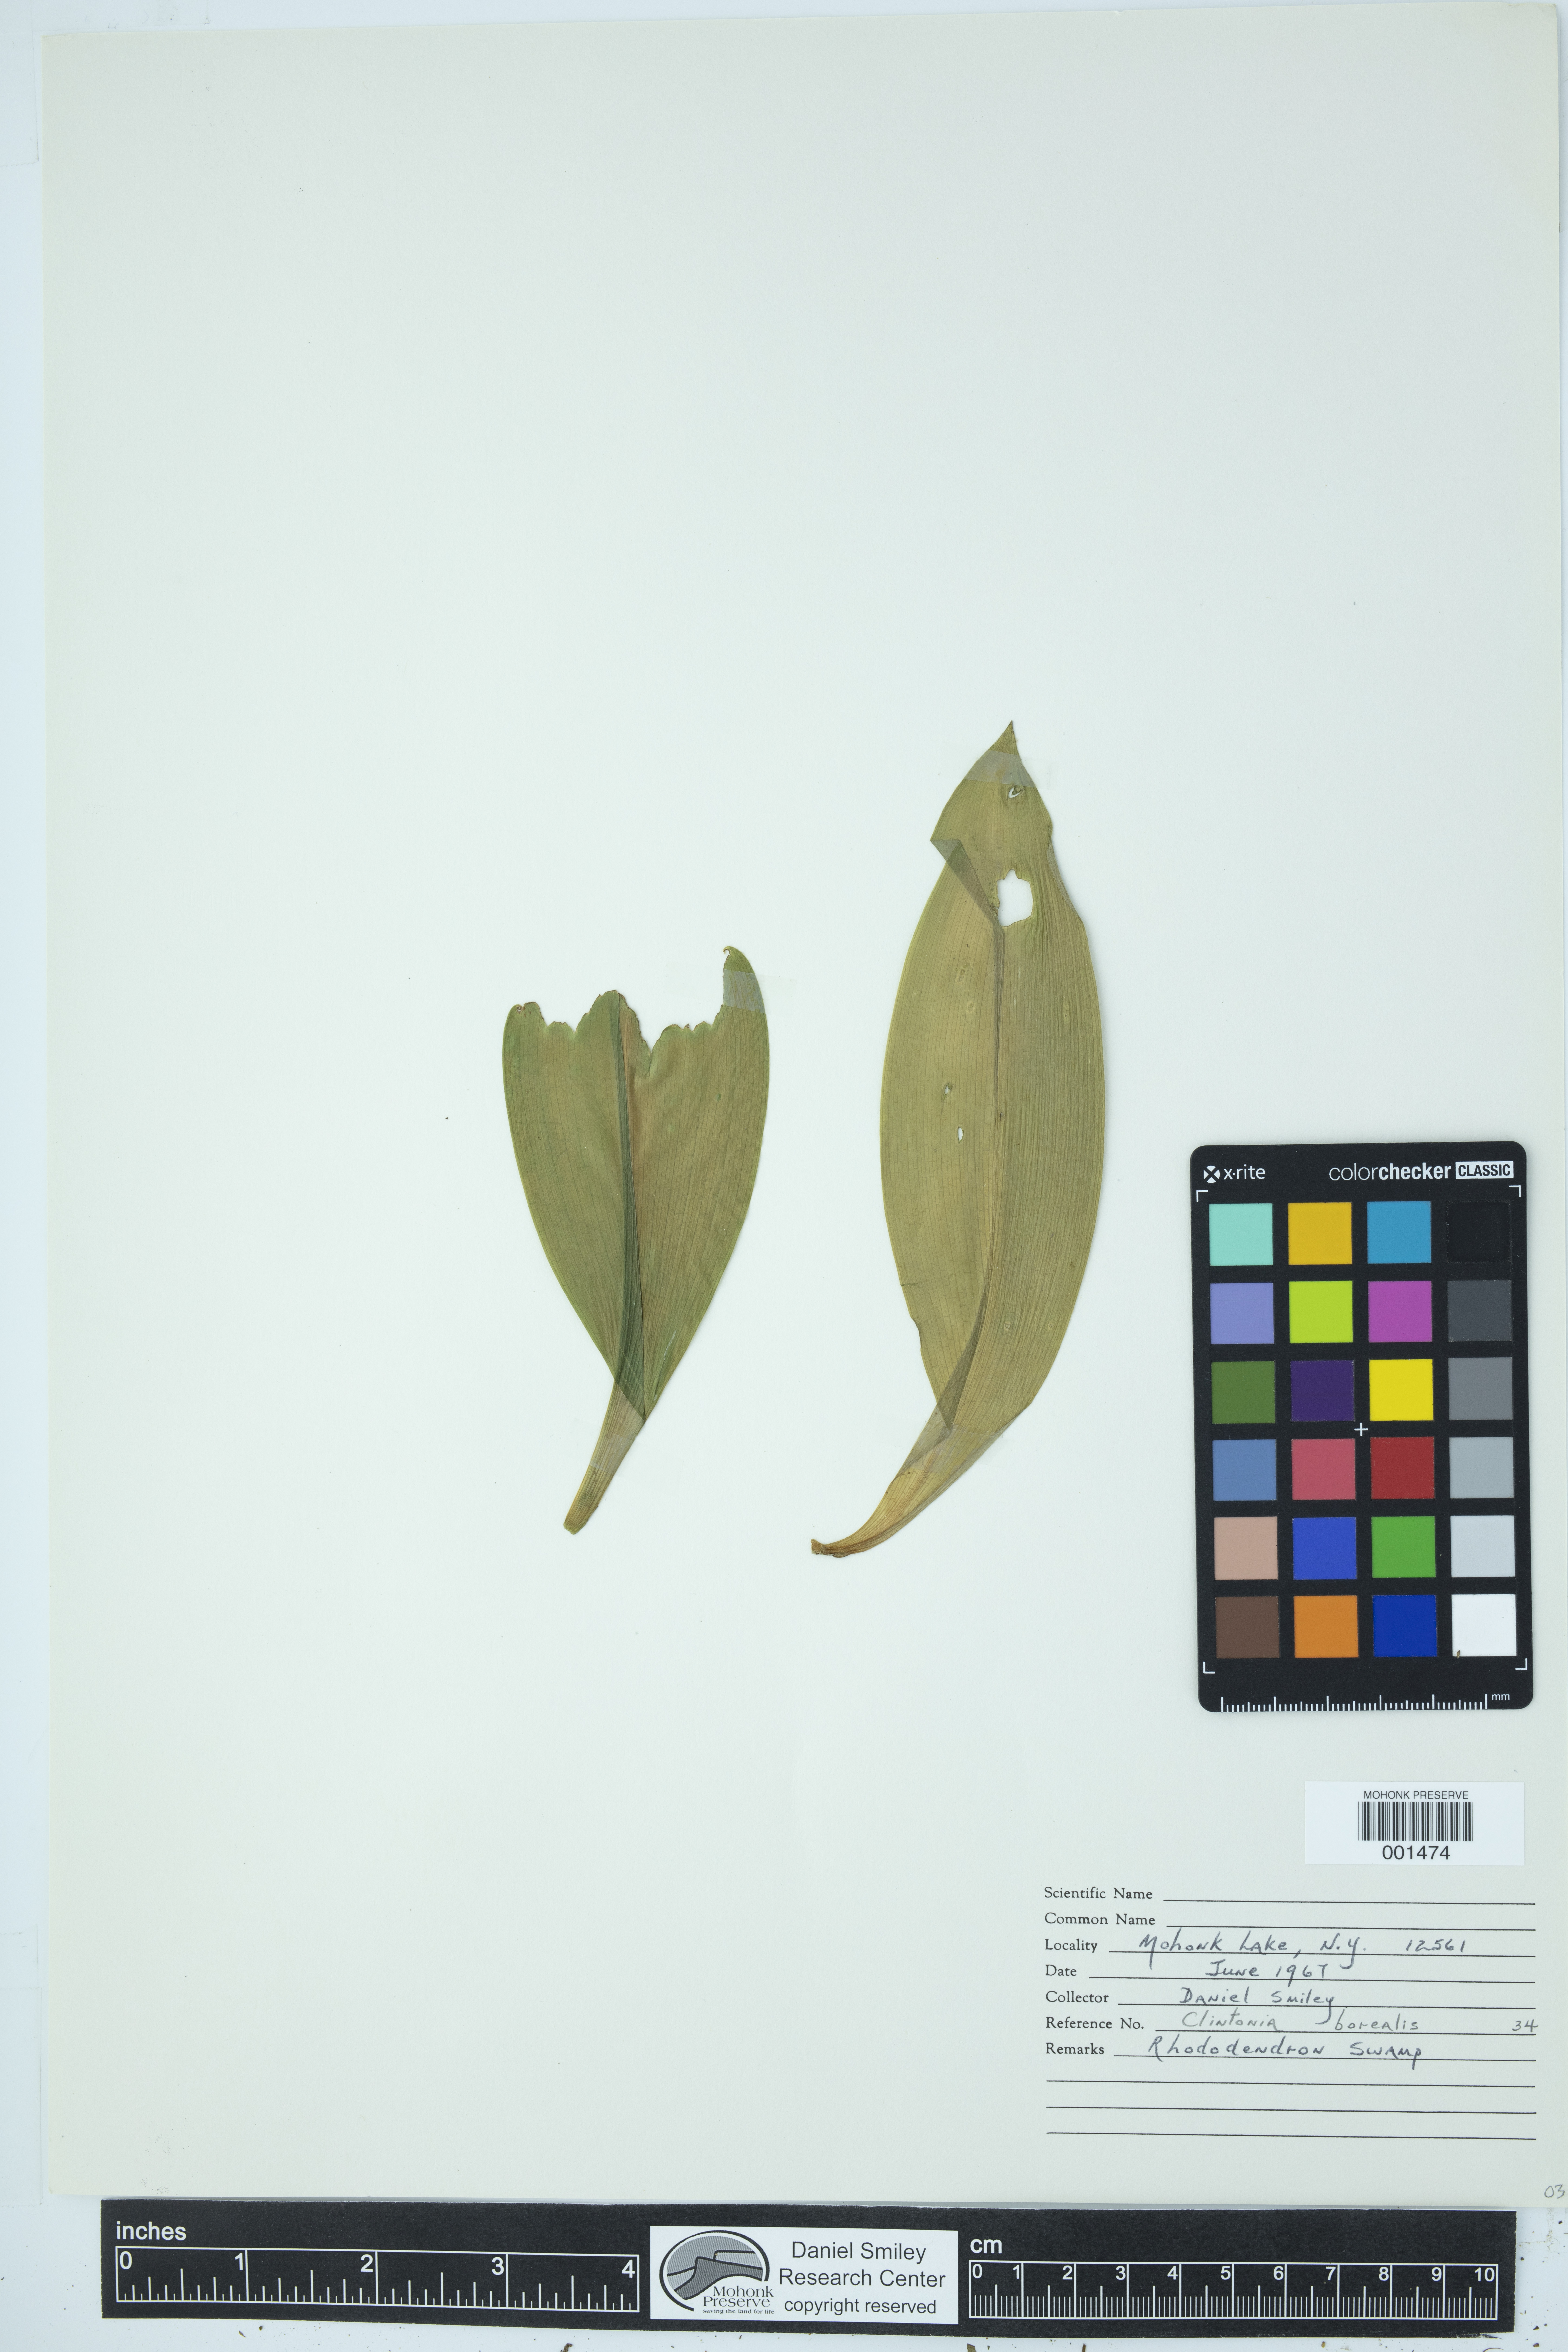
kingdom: Plantae
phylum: Tracheophyta
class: Liliopsida
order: Liliales
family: Liliaceae
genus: Clintonia
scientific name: Clintonia borealis
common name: Yellow clintonia
